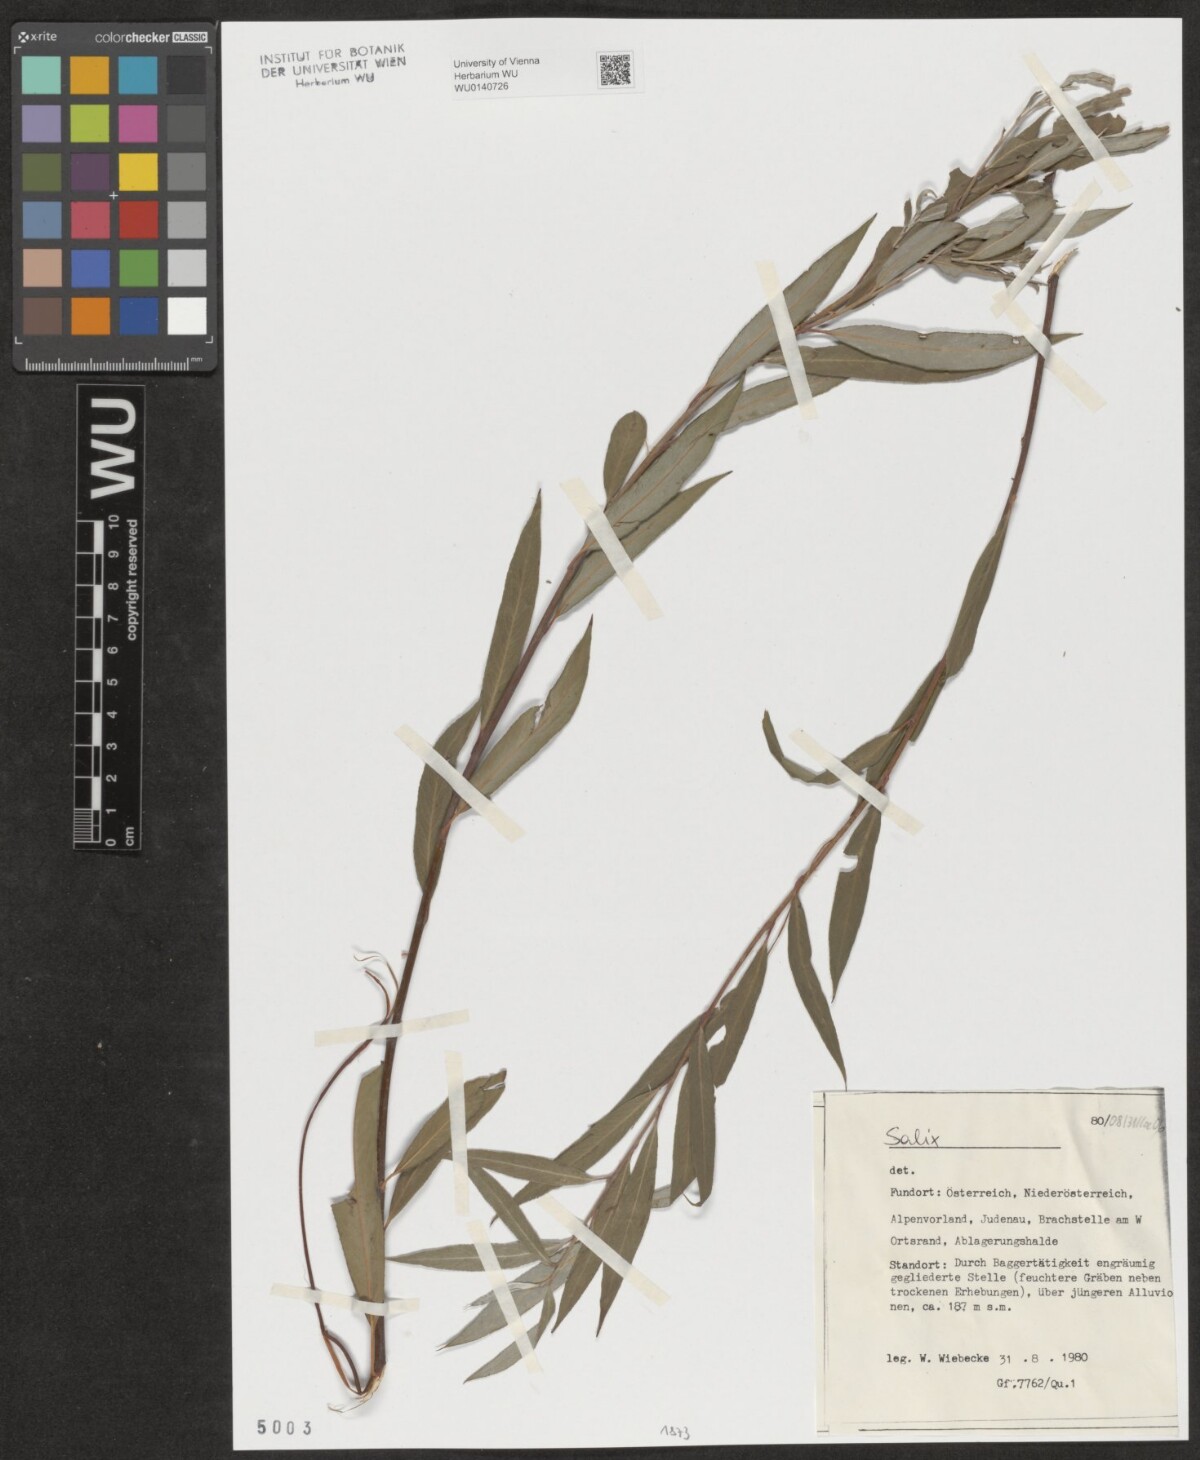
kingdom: Plantae
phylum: Tracheophyta
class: Magnoliopsida
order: Malpighiales
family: Salicaceae
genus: Salix
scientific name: Salix
